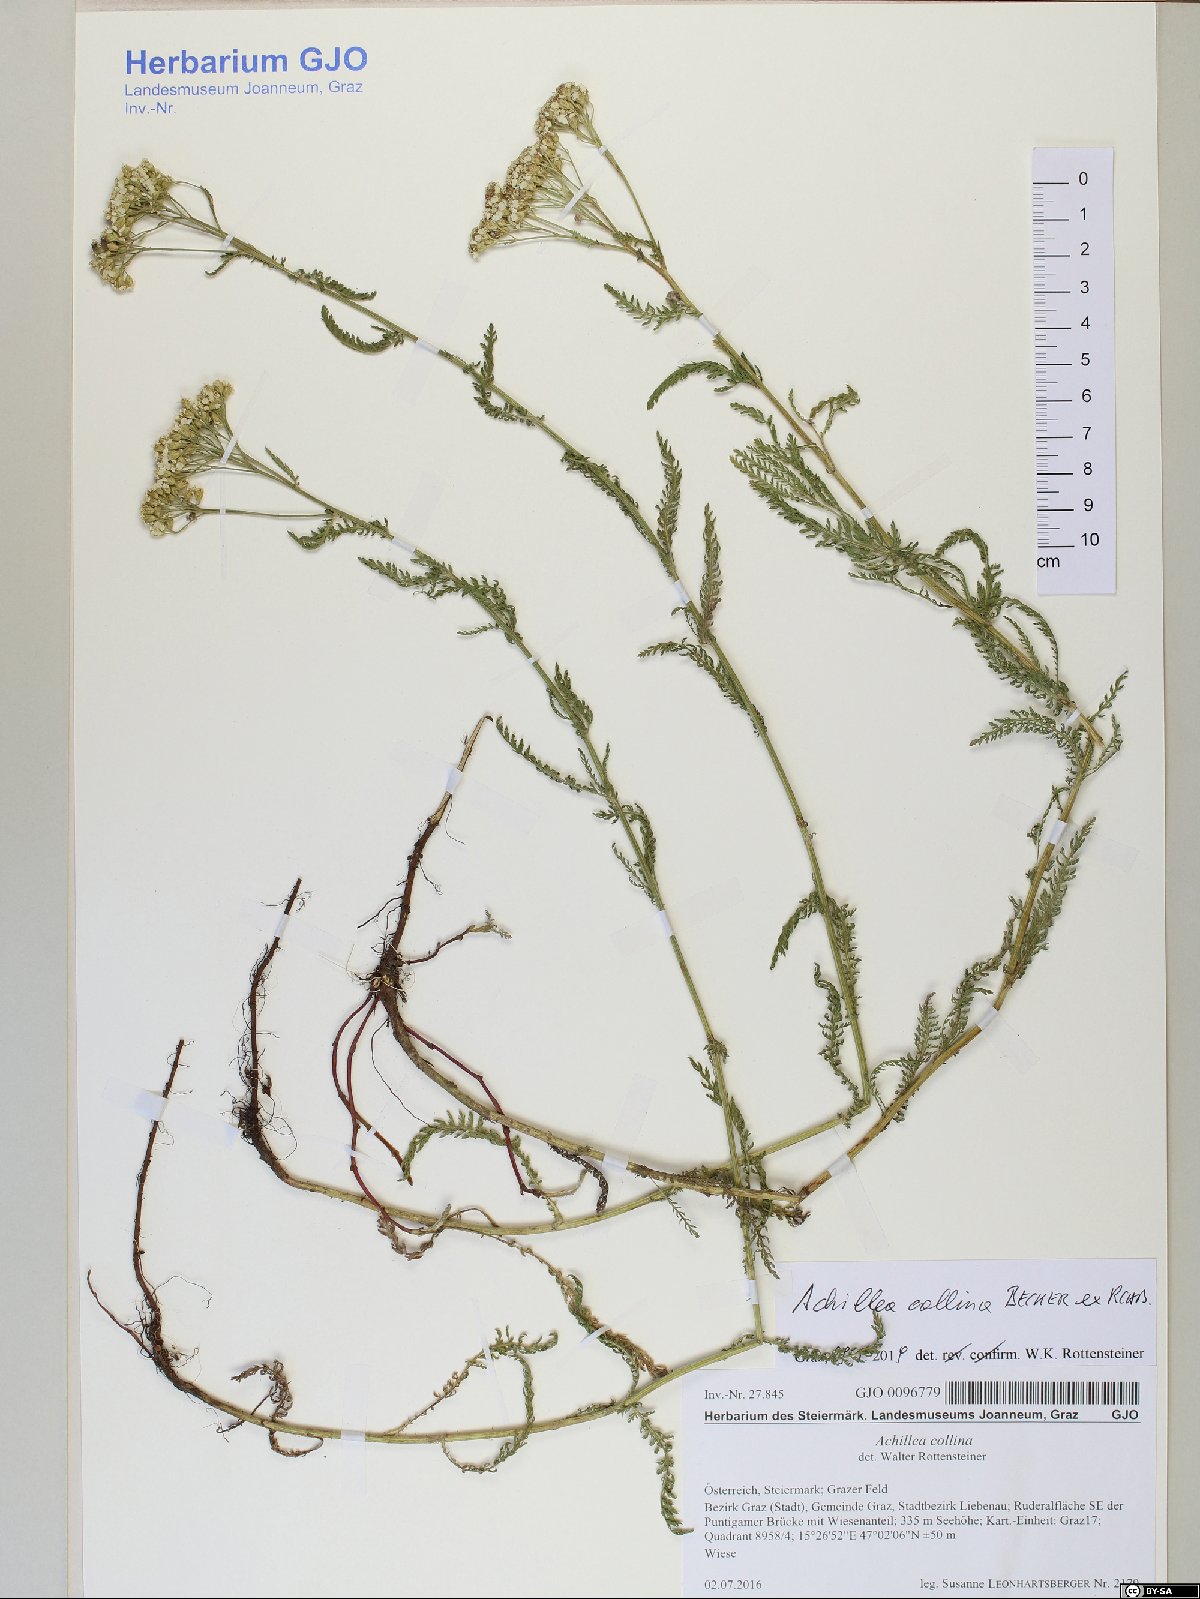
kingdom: Plantae
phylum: Tracheophyta
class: Magnoliopsida
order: Asterales
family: Asteraceae
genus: Achillea
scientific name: Achillea collina
